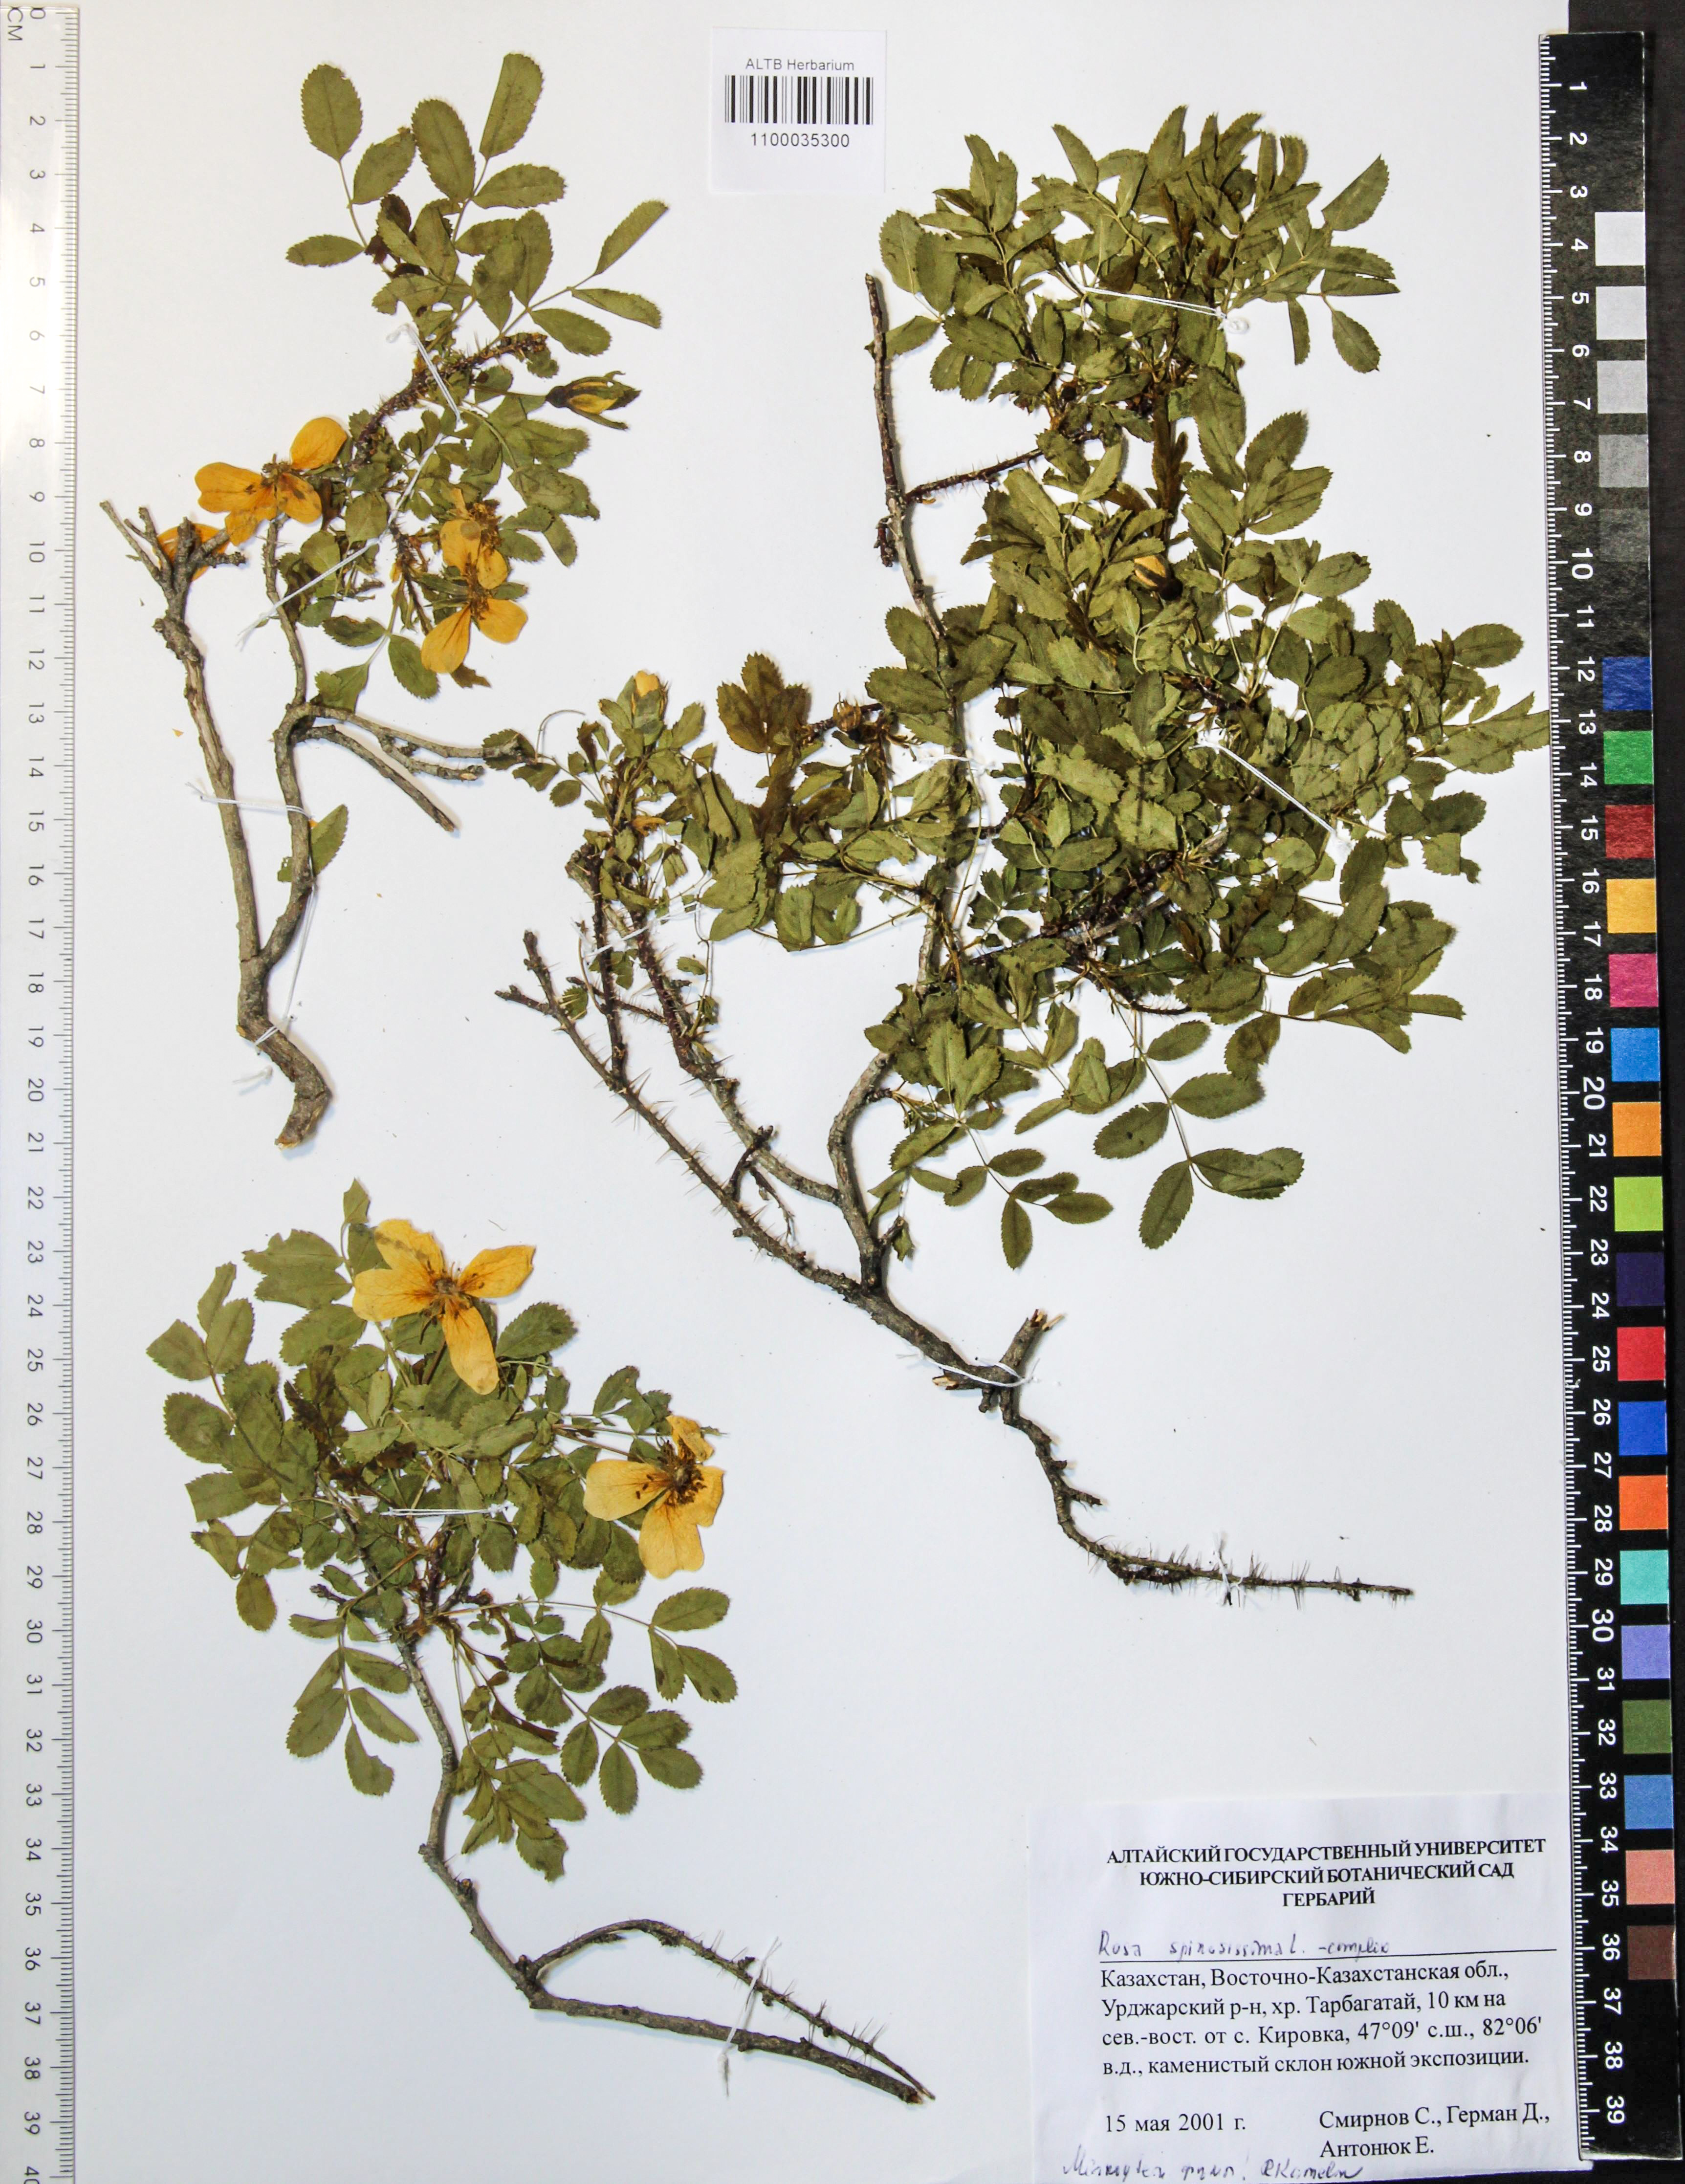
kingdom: Plantae
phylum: Tracheophyta
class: Magnoliopsida
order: Rosales
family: Rosaceae
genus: Rosa
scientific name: Rosa spinosissima
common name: Burnet rose
